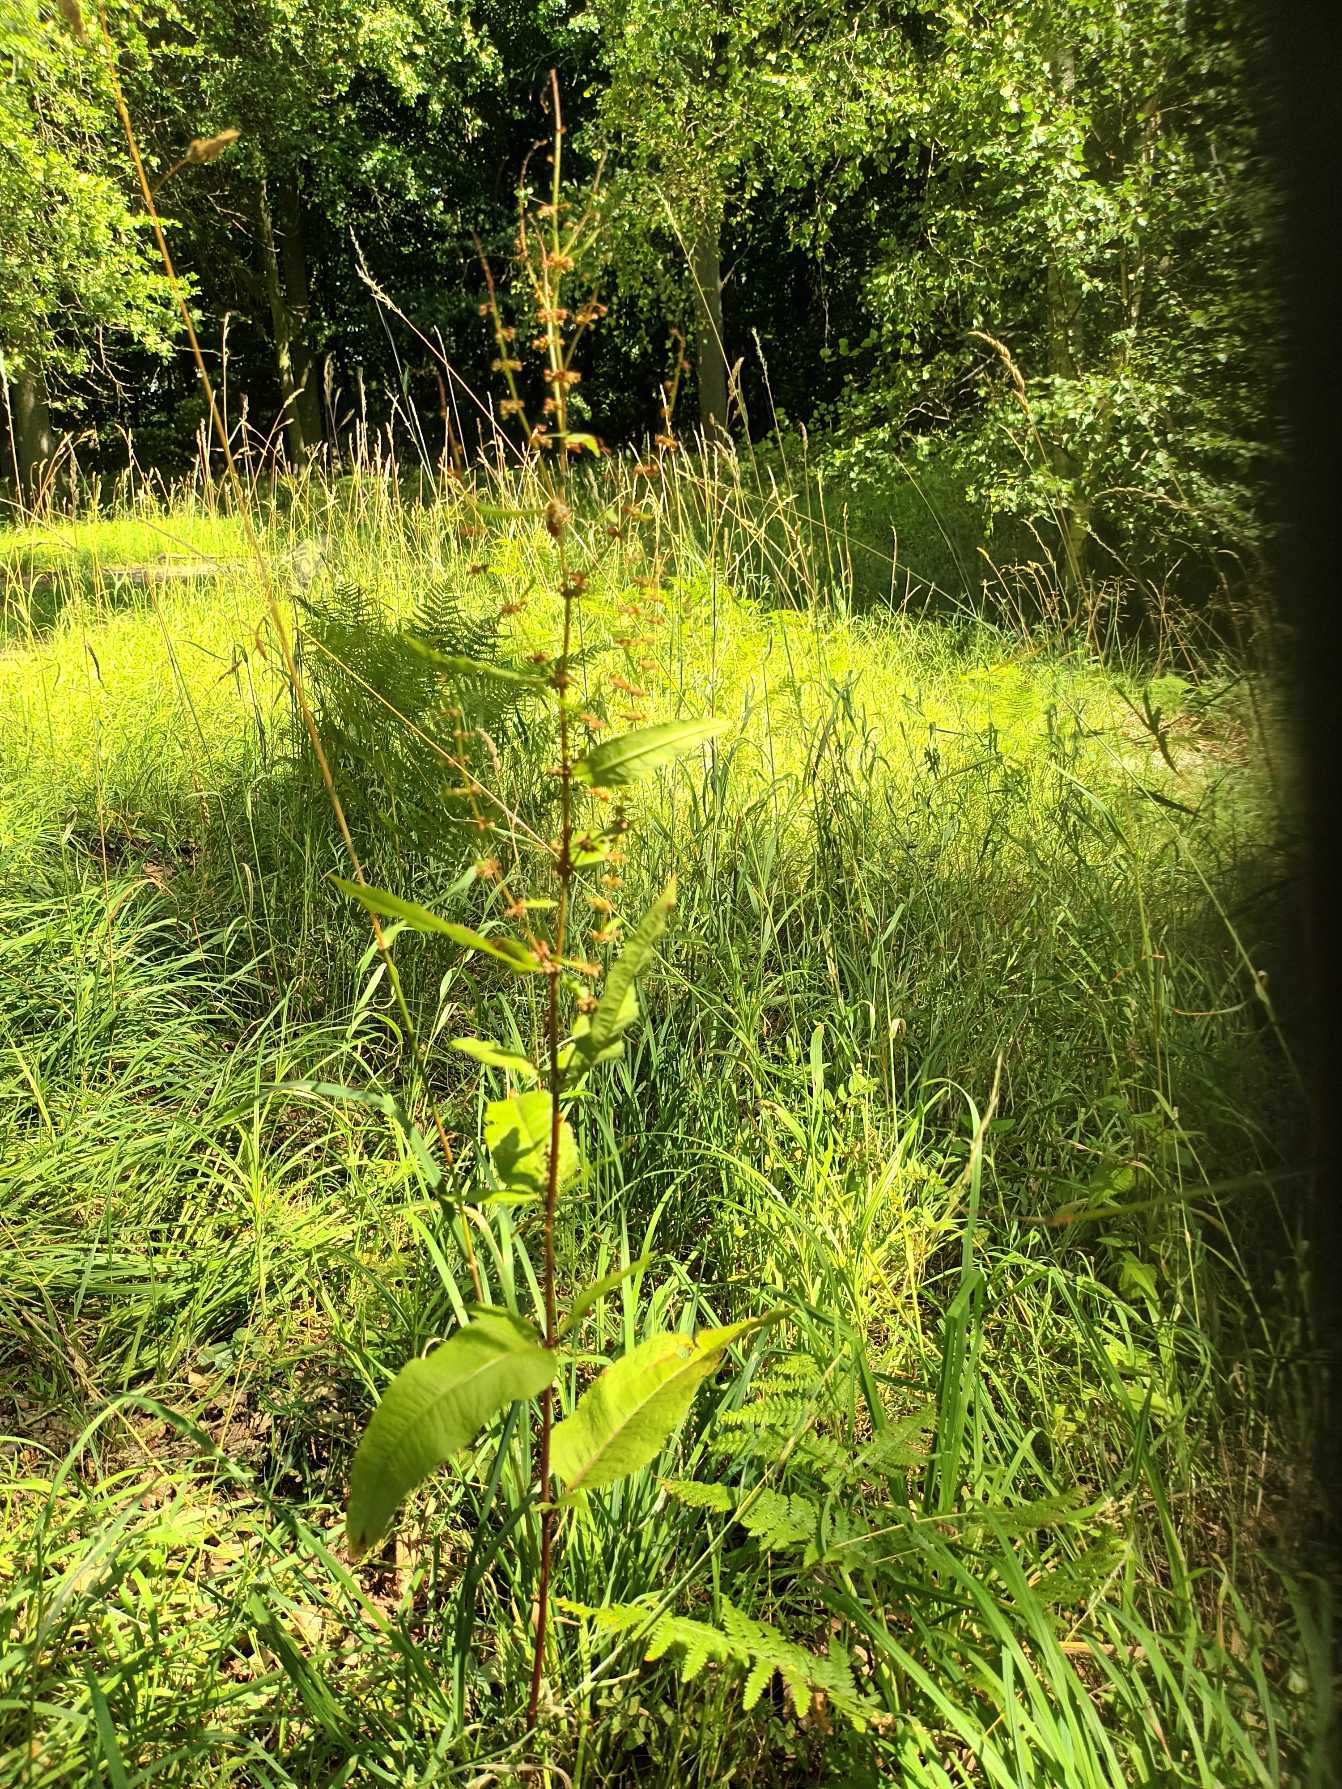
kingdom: Plantae
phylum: Tracheophyta
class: Magnoliopsida
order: Caryophyllales
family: Polygonaceae
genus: Rumex
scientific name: Rumex sanguineus
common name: Skov-skræppe
